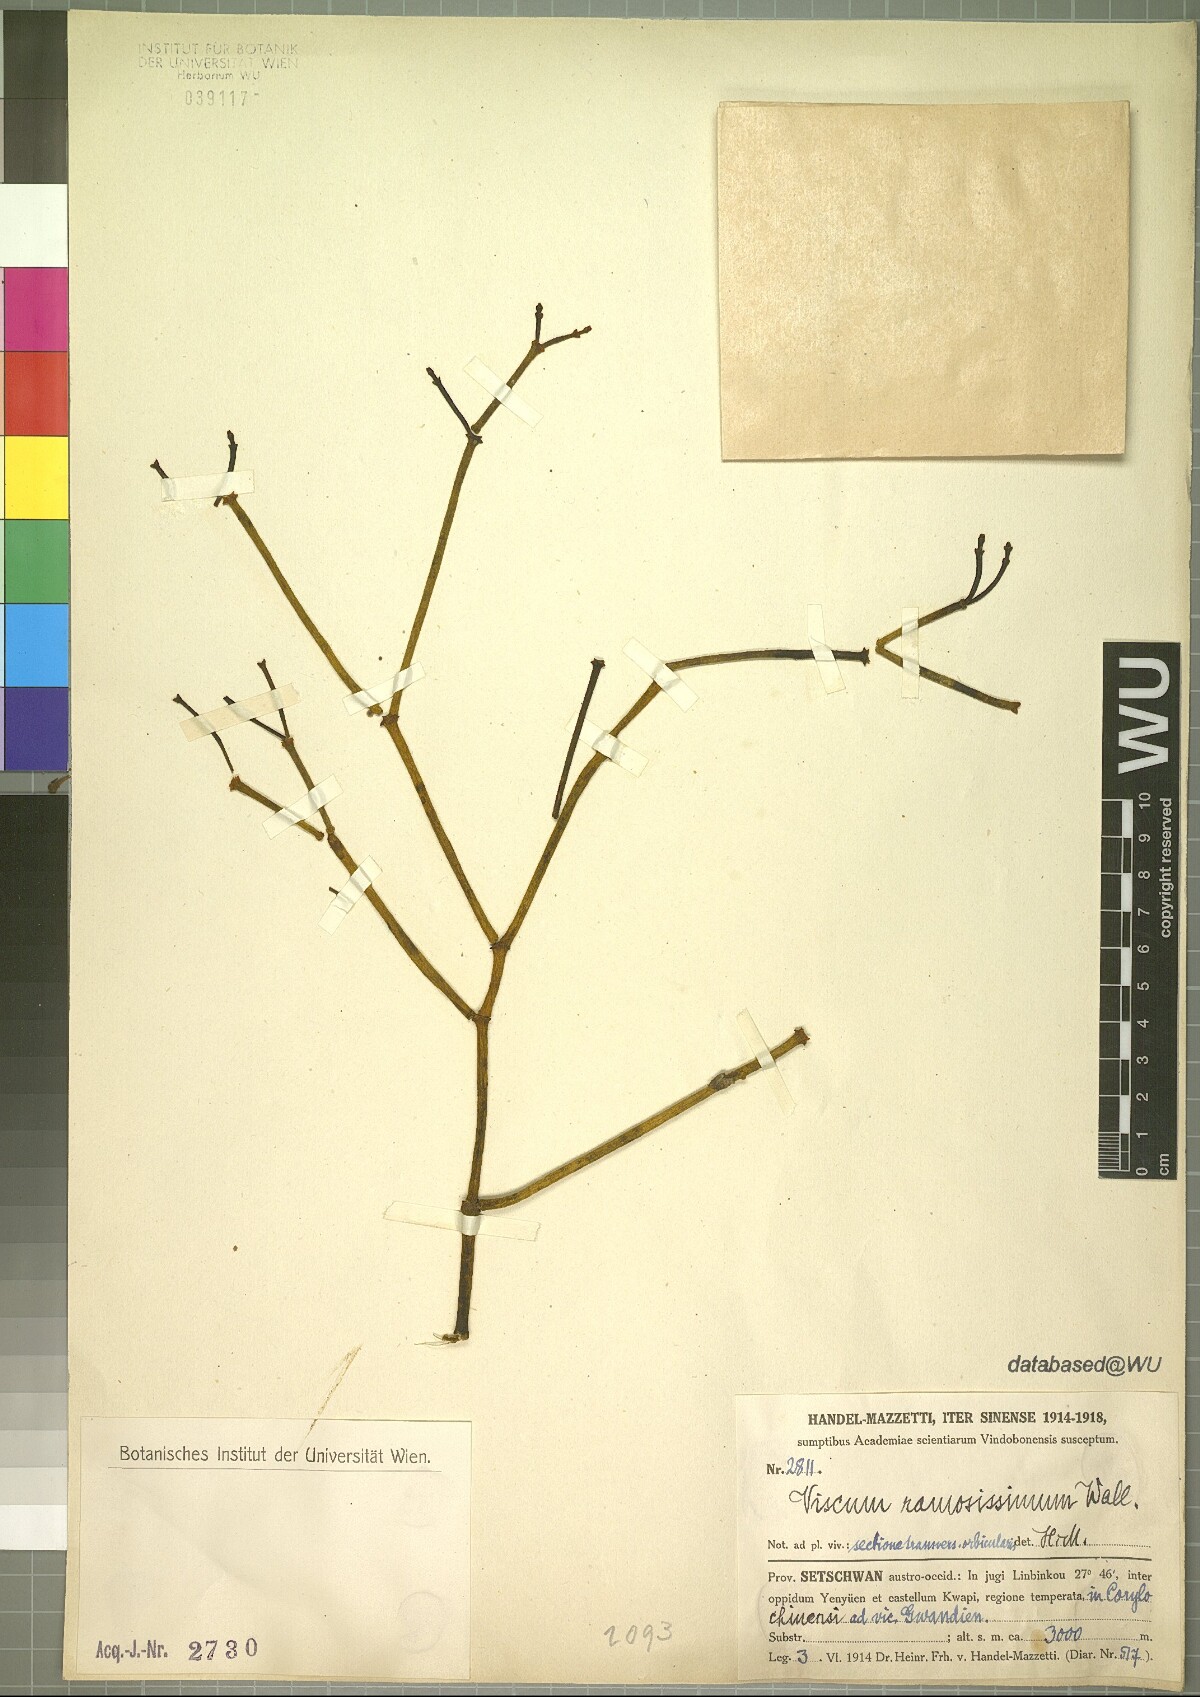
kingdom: Plantae
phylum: Tracheophyta
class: Magnoliopsida
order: Santalales
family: Viscaceae
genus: Viscum
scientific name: Viscum ramosissimum
